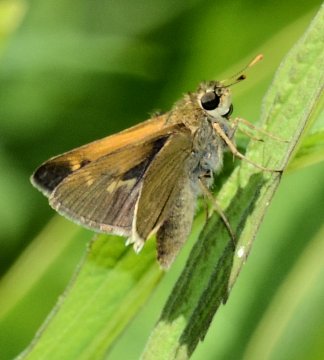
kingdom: Animalia
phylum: Arthropoda
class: Insecta
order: Lepidoptera
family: Hesperiidae
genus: Polites
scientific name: Polites
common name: Crossline Skipper
